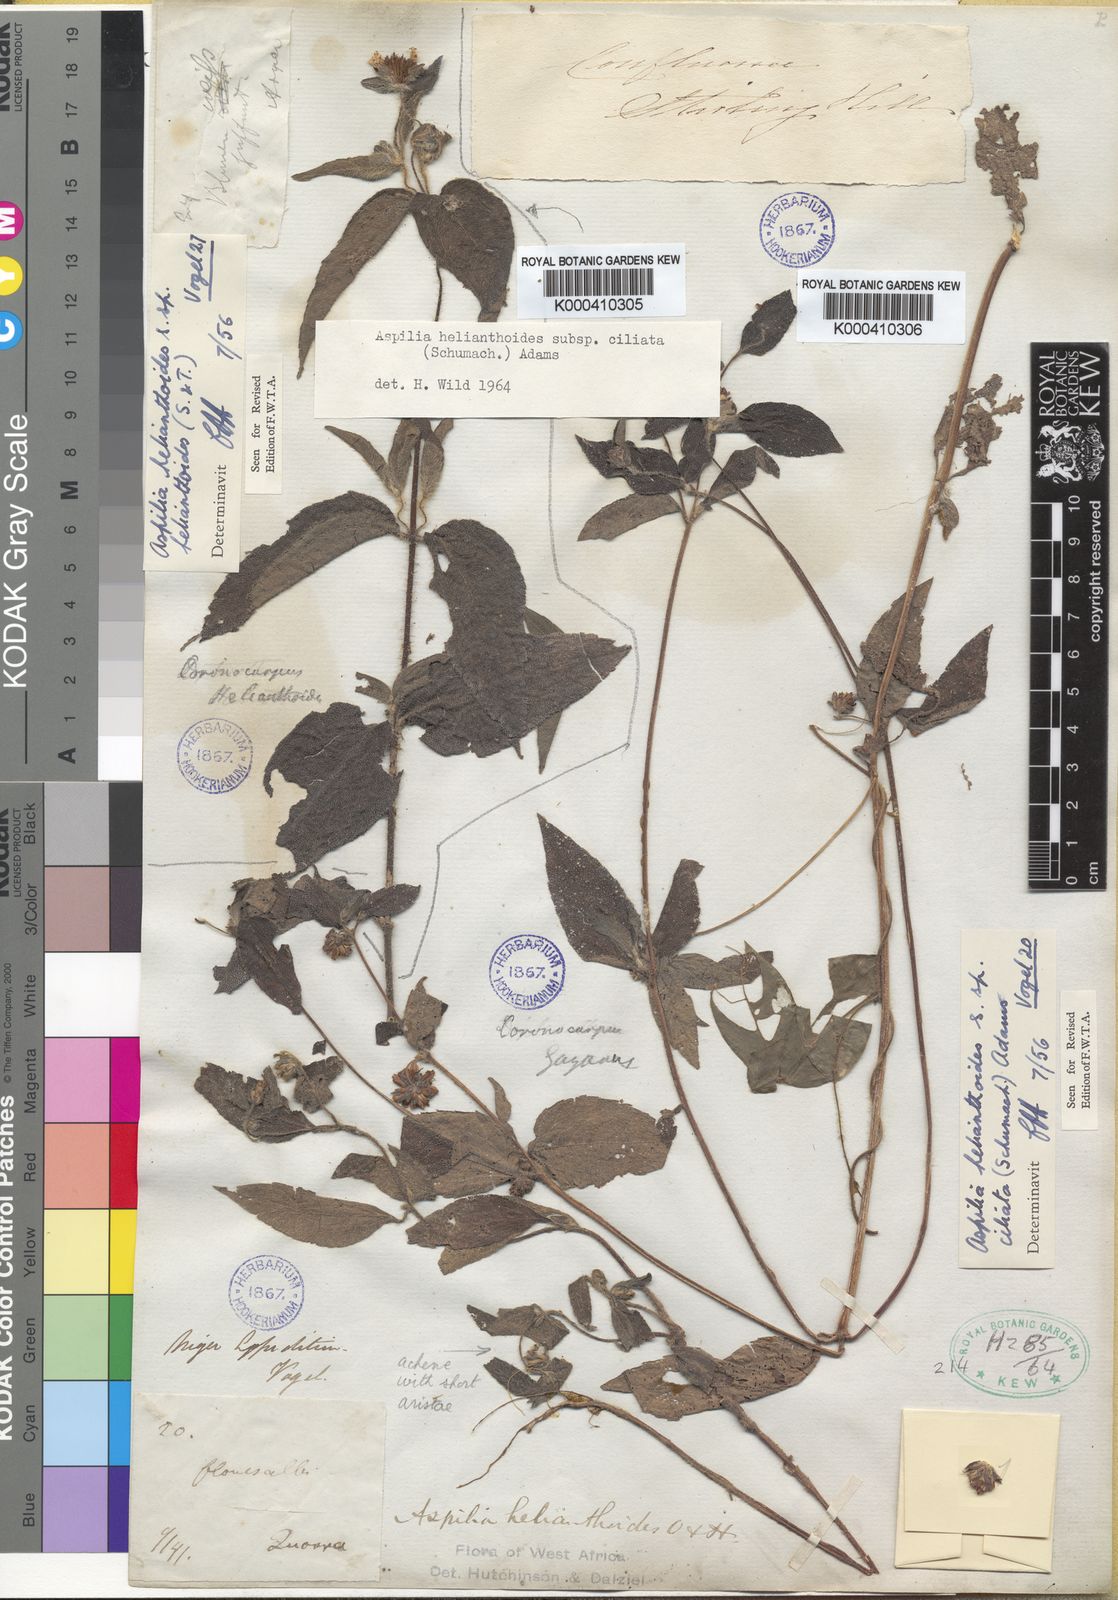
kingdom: Plantae
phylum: Tracheophyta
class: Magnoliopsida
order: Asterales
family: Asteraceae
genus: Aspilia
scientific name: Aspilia ciliata
